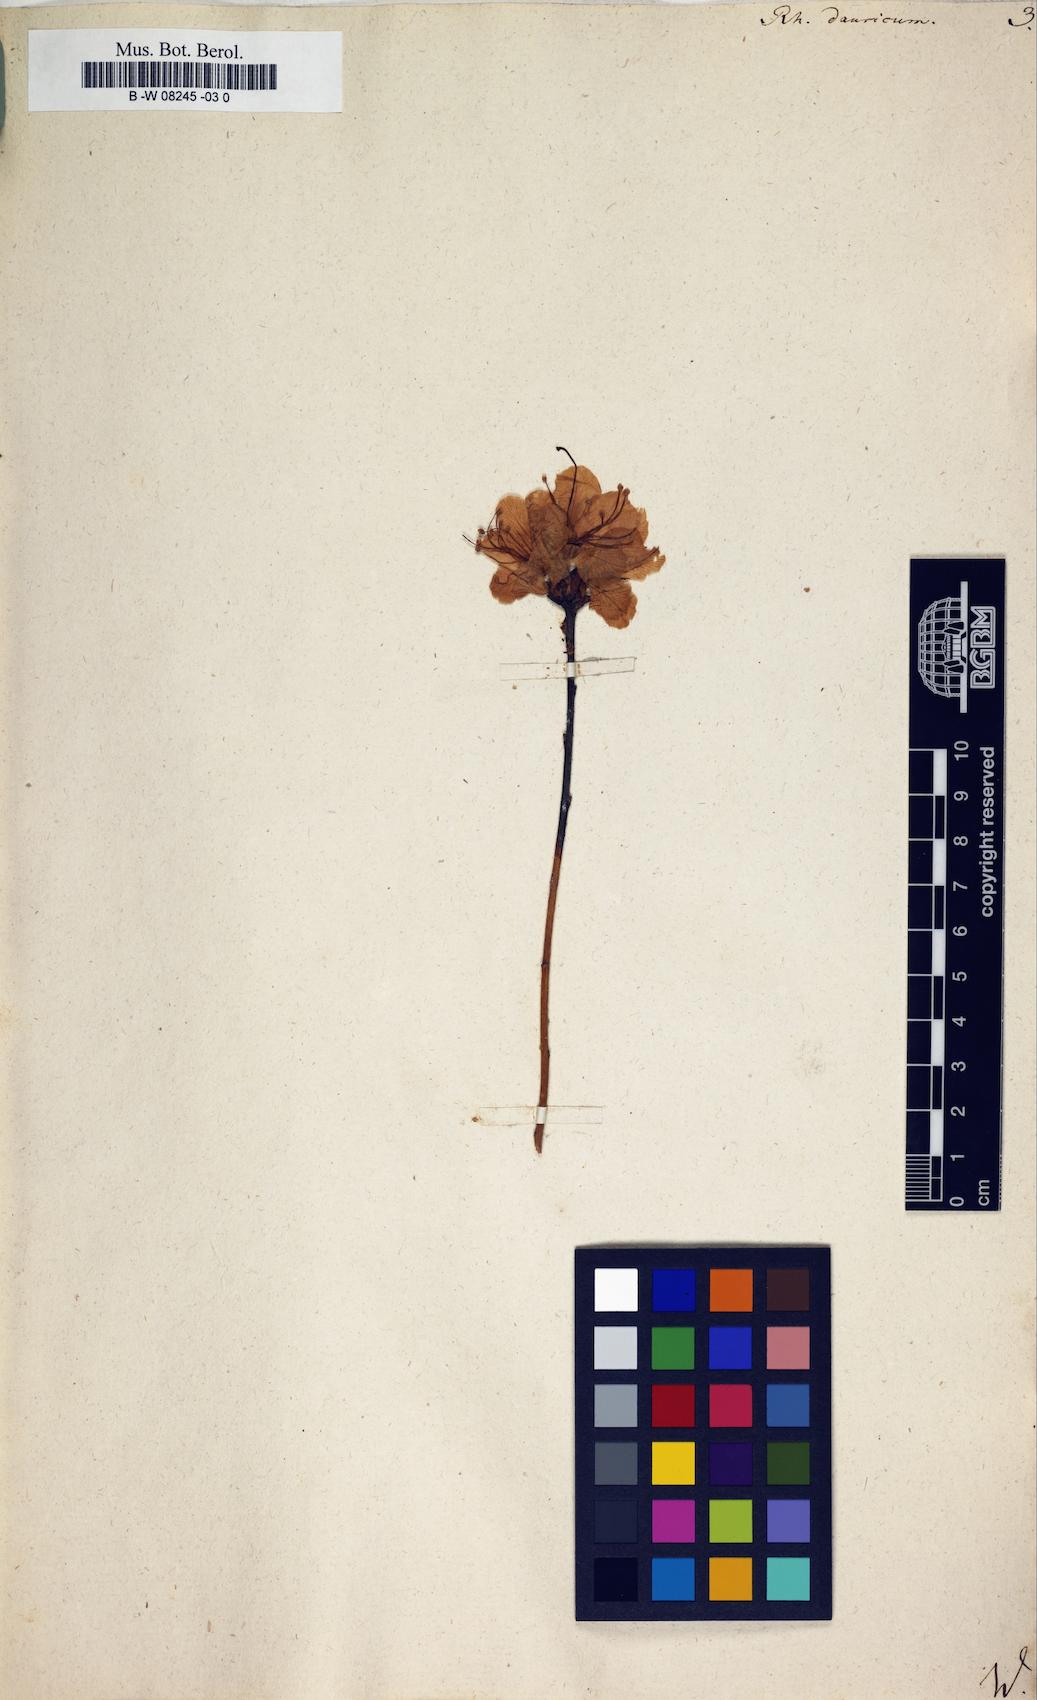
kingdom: Plantae
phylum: Tracheophyta
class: Magnoliopsida
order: Ericales
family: Ericaceae
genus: Rhododendron
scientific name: Rhododendron dauricum
